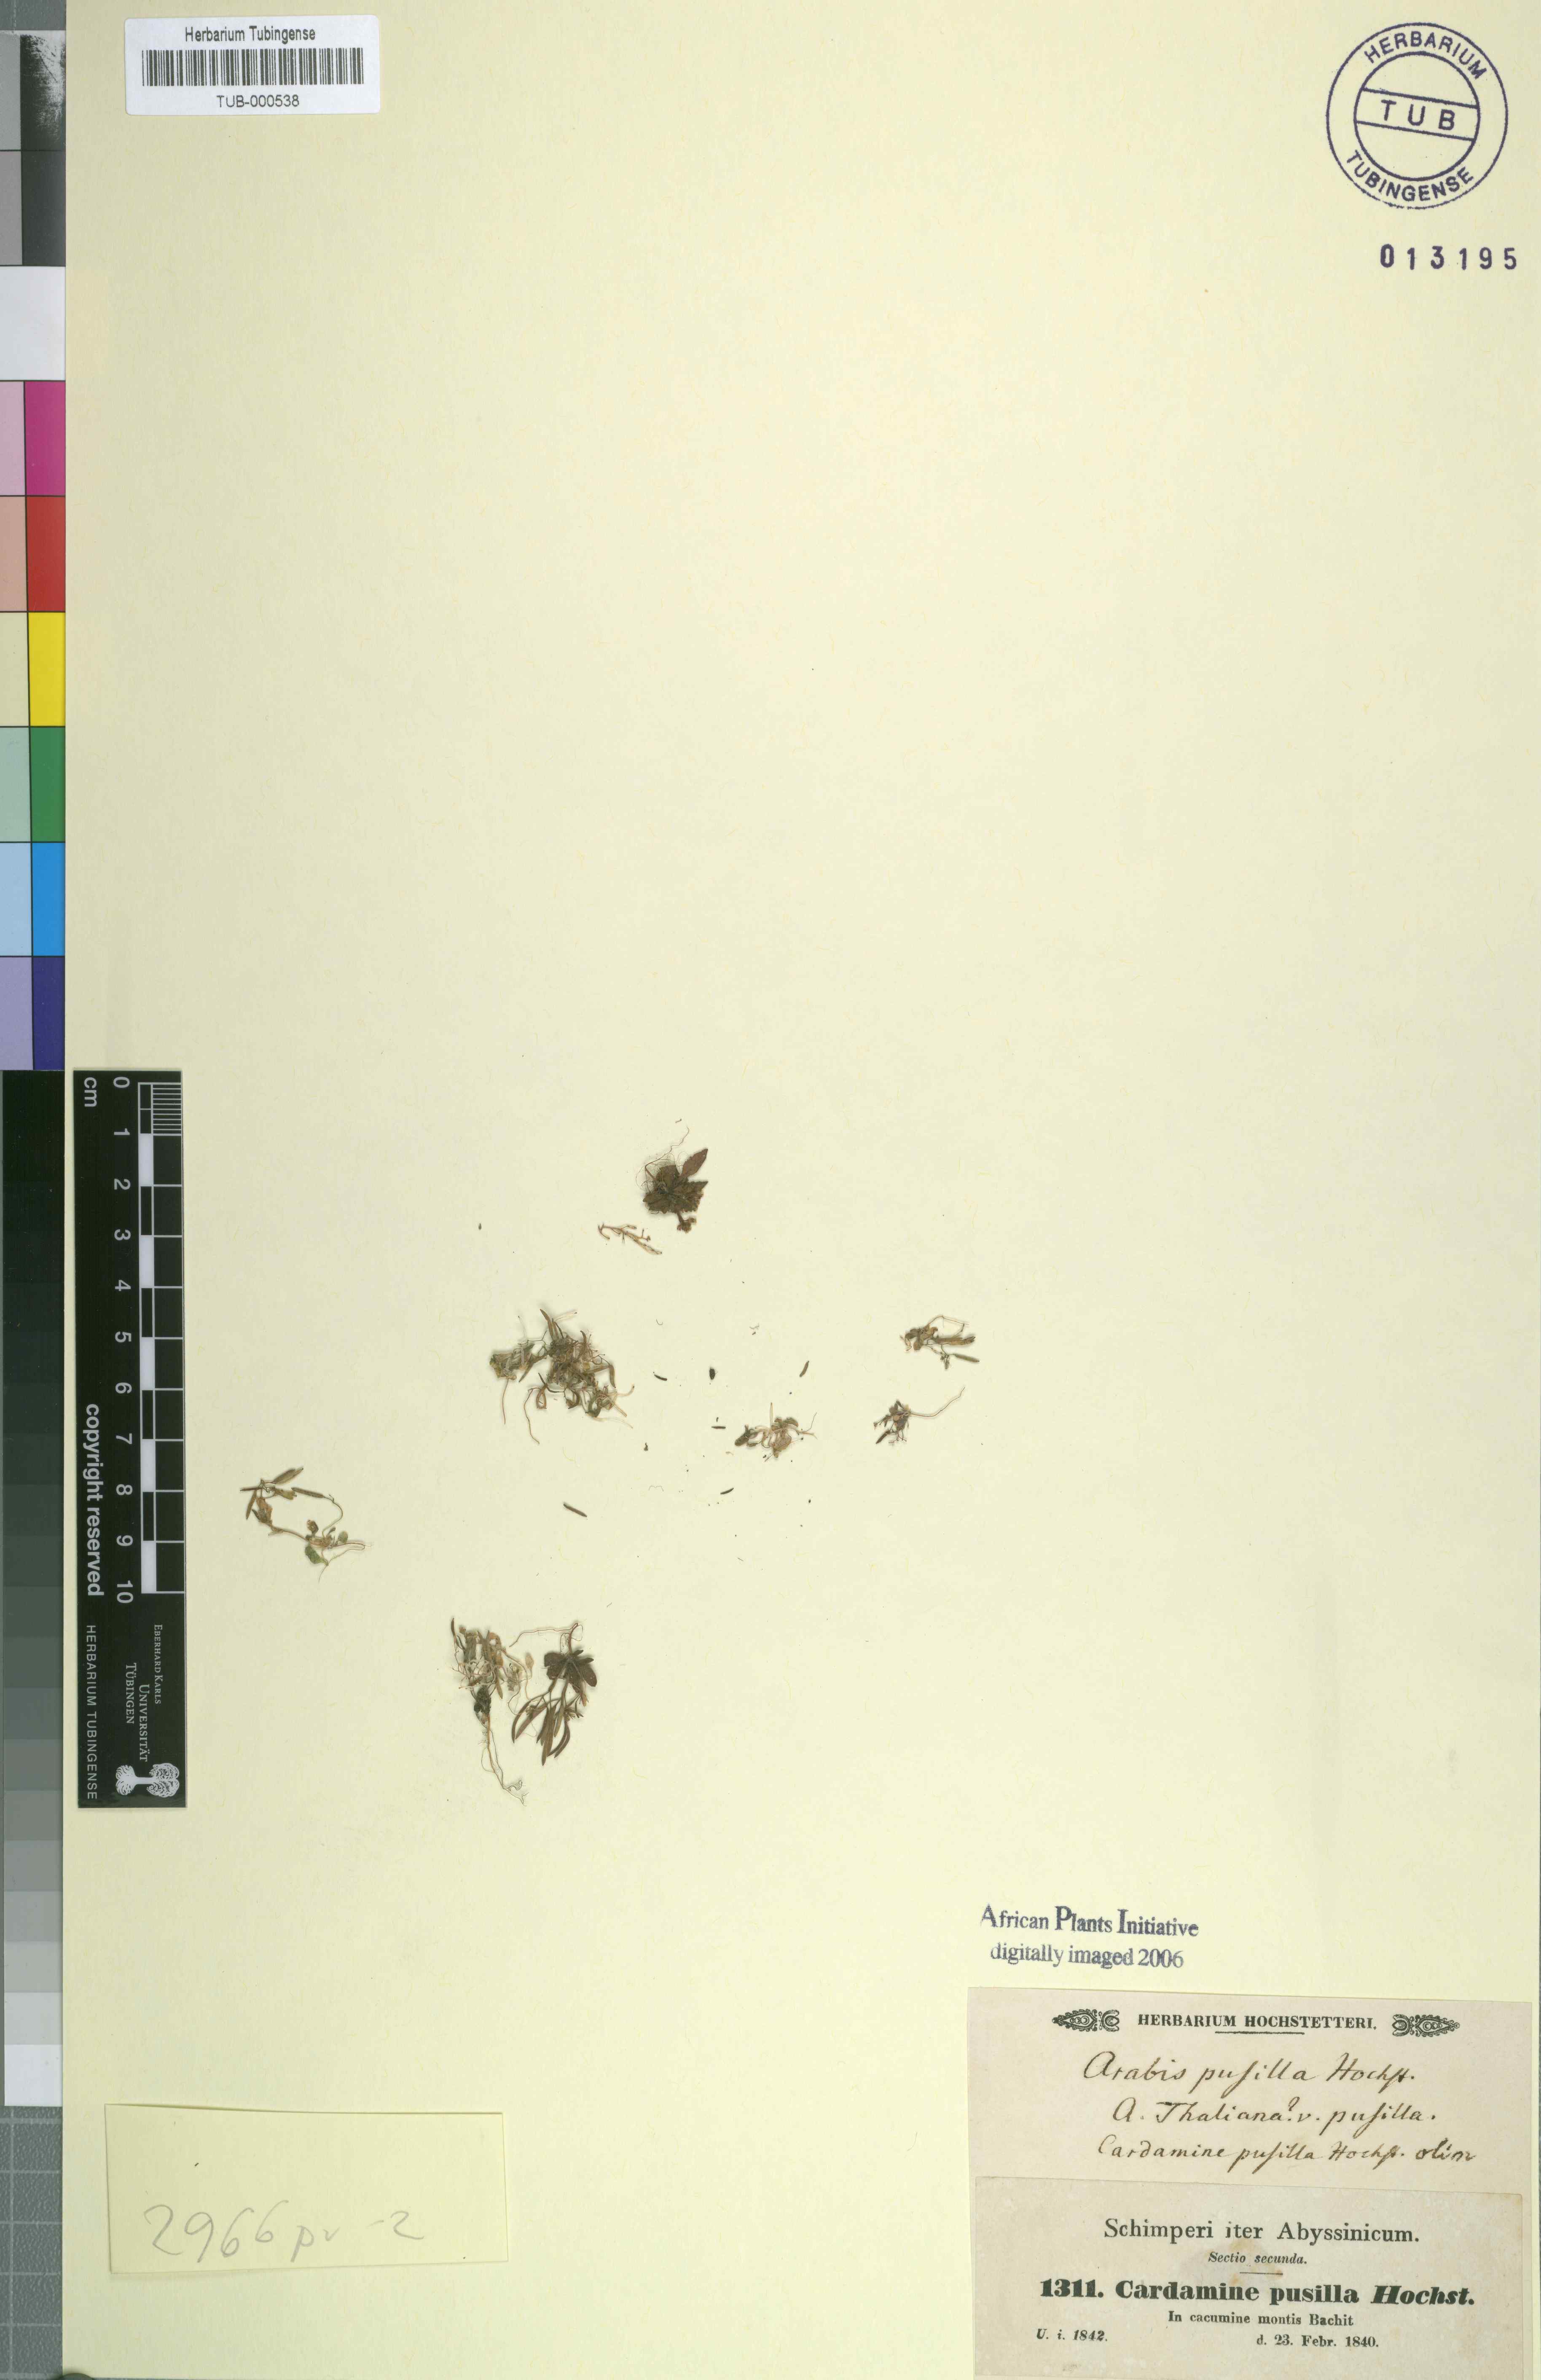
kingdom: Plantae
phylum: Tracheophyta
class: Magnoliopsida
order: Brassicales
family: Brassicaceae
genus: Arabidopsis
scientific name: Arabidopsis thaliana
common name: Thale cress
